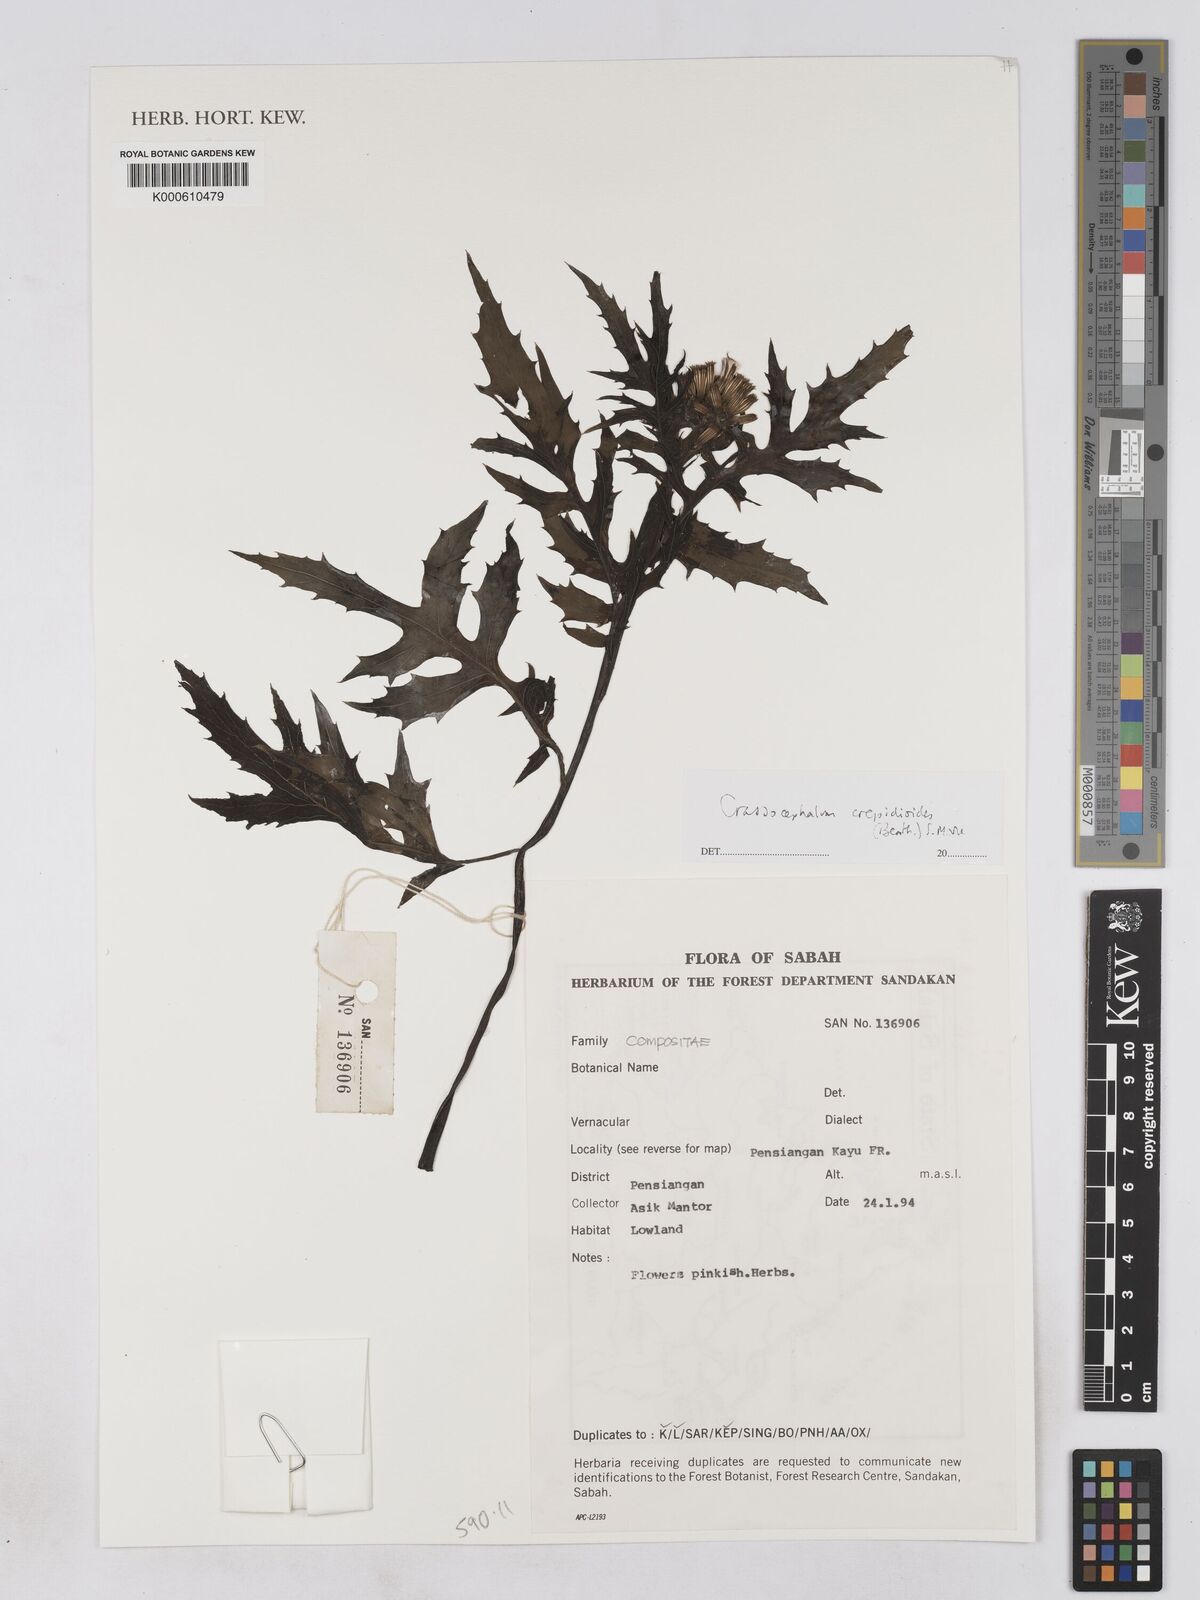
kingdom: Plantae
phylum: Tracheophyta
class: Magnoliopsida
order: Asterales
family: Asteraceae
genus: Crassocephalum
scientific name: Crassocephalum crepidioides
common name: Redflower ragleaf
